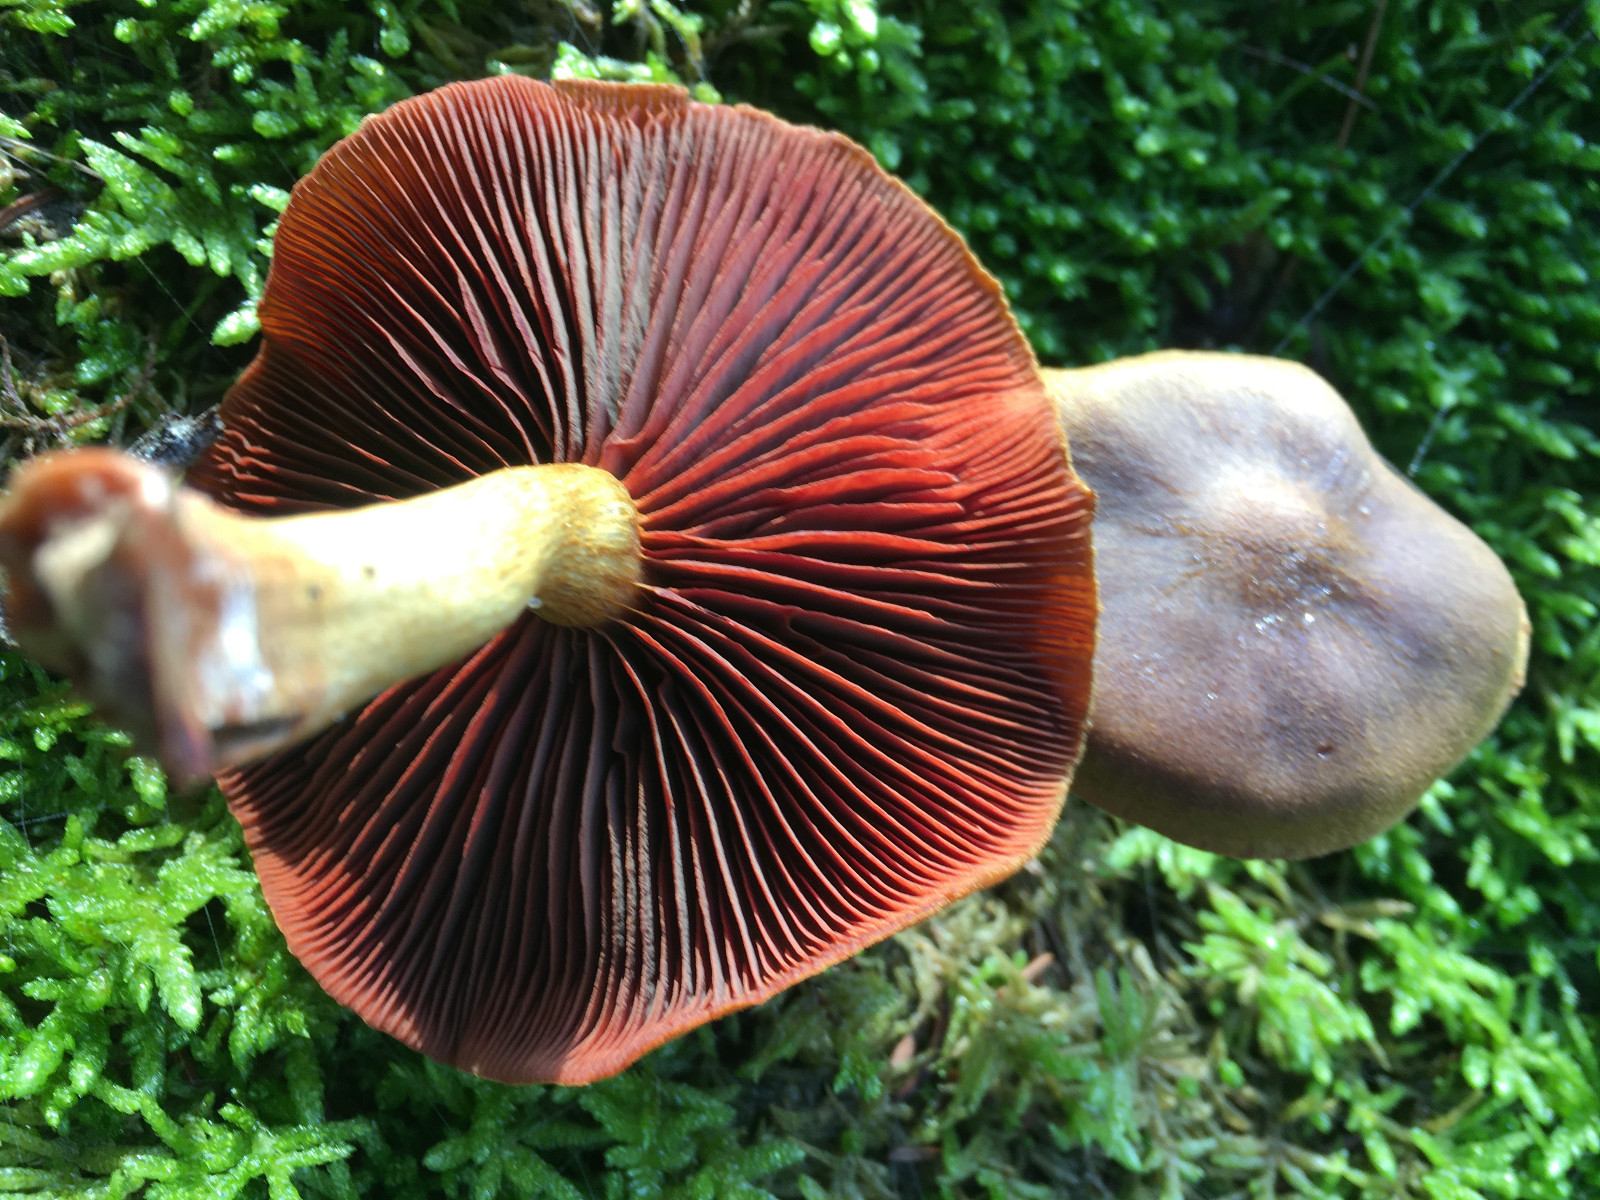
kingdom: Fungi
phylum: Basidiomycota
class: Agaricomycetes
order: Agaricales
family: Cortinariaceae
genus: Cortinarius
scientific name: Cortinarius
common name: cinnoberbladet slørhat
